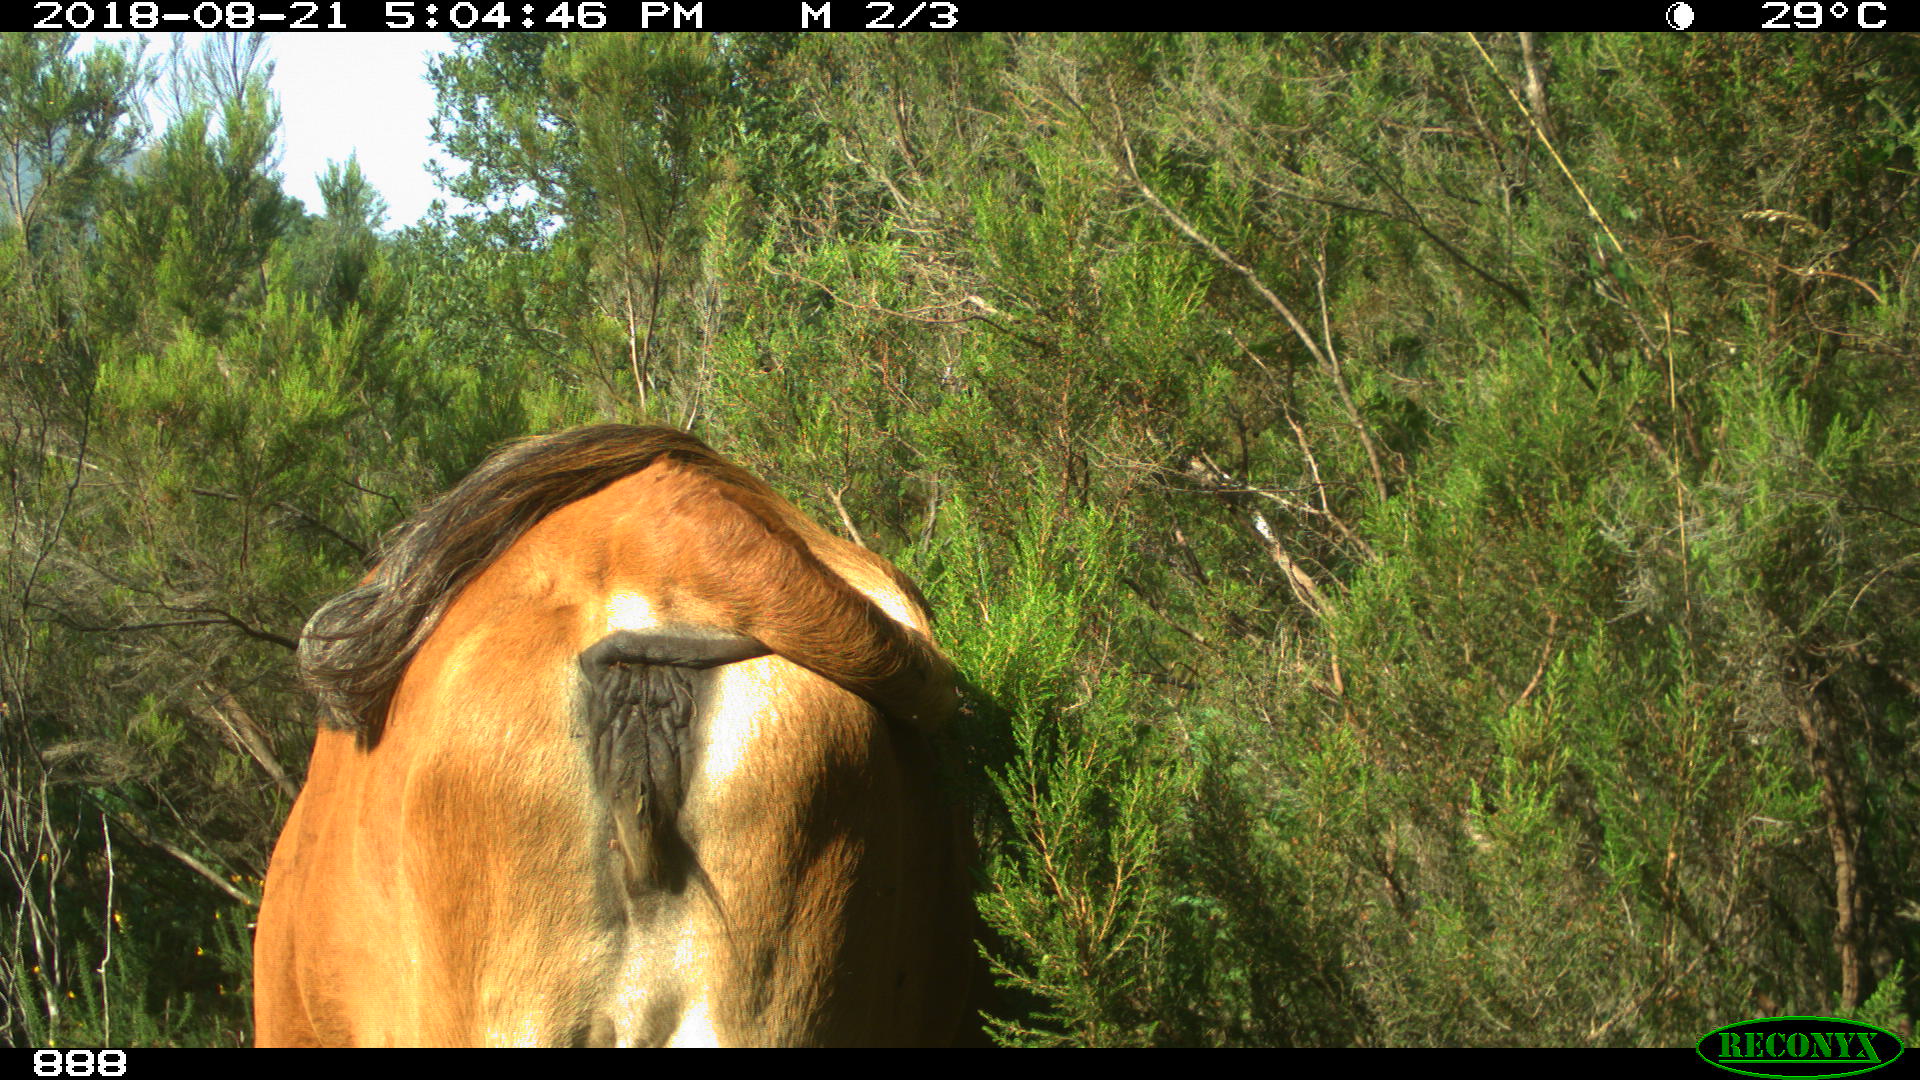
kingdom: Animalia
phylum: Chordata
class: Mammalia
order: Artiodactyla
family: Bovidae
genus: Bos
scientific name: Bos taurus
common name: Domesticated cattle
